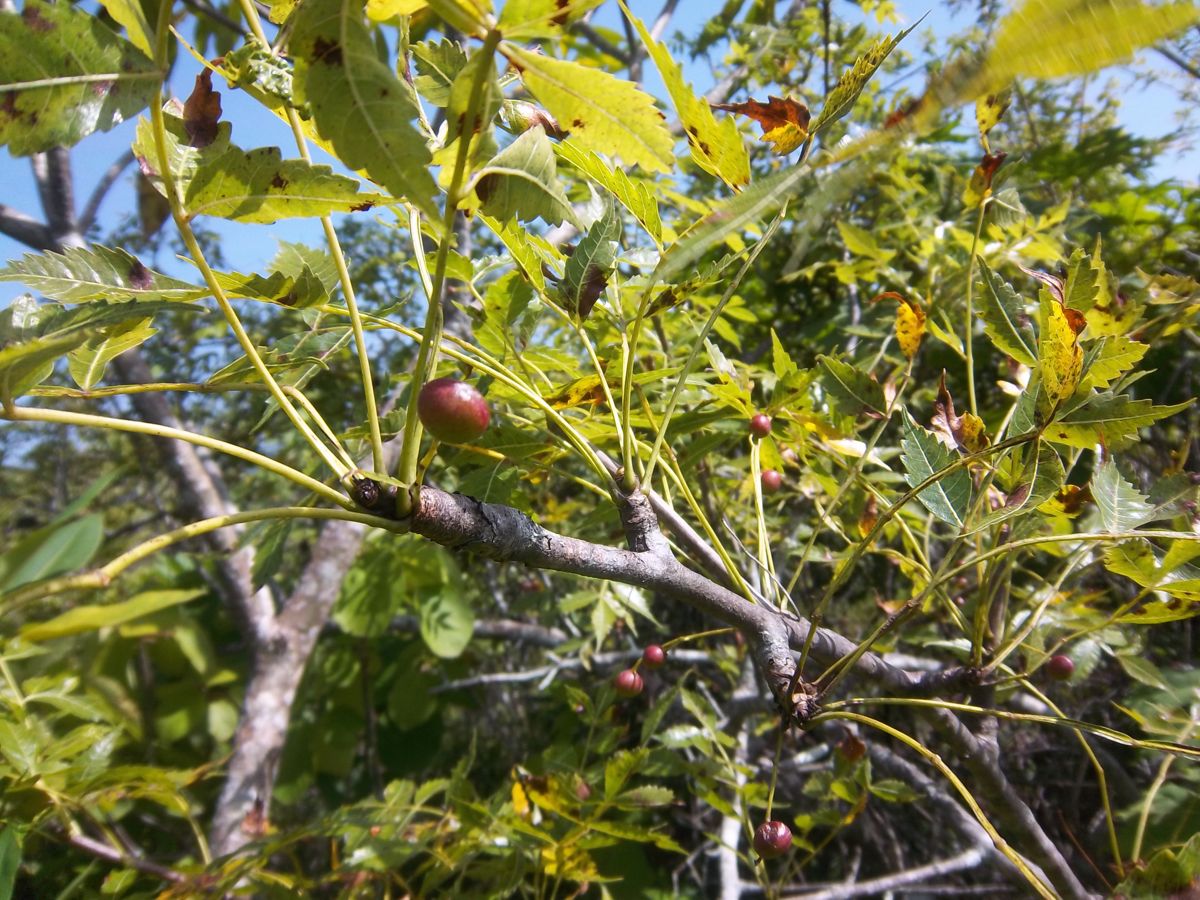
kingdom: Plantae
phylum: Tracheophyta
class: Magnoliopsida
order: Sapindales
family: Burseraceae
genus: Bursera
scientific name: Bursera graveolens
